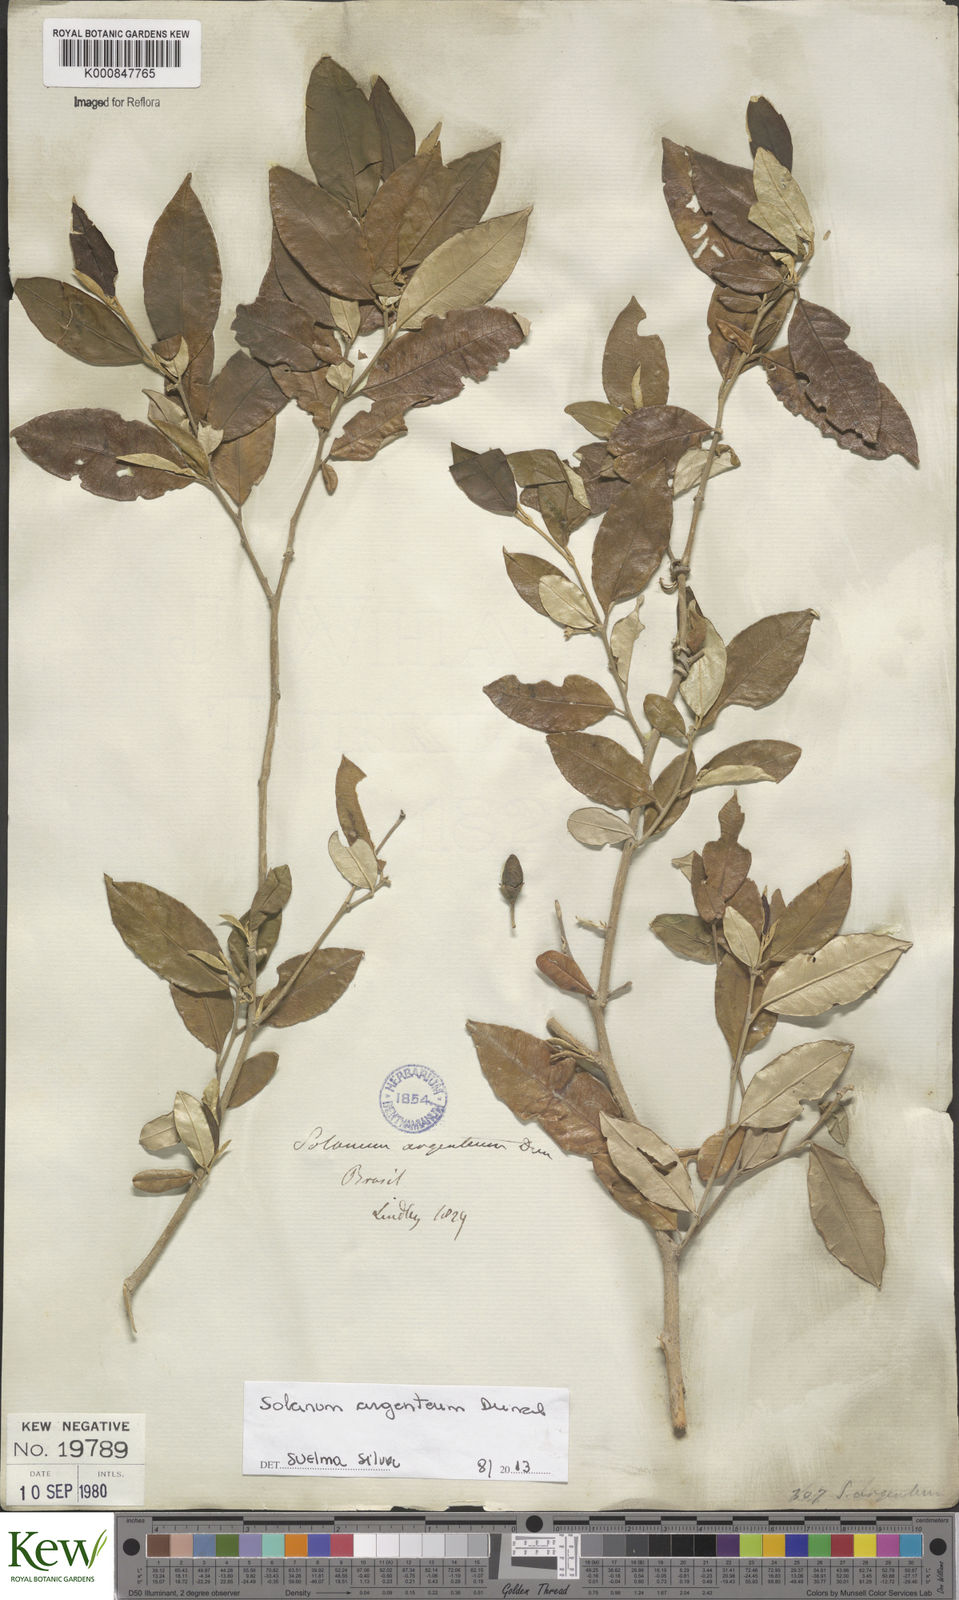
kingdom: Plantae
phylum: Tracheophyta
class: Magnoliopsida
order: Solanales
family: Solanaceae
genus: Solanum
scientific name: Solanum swartzianum
